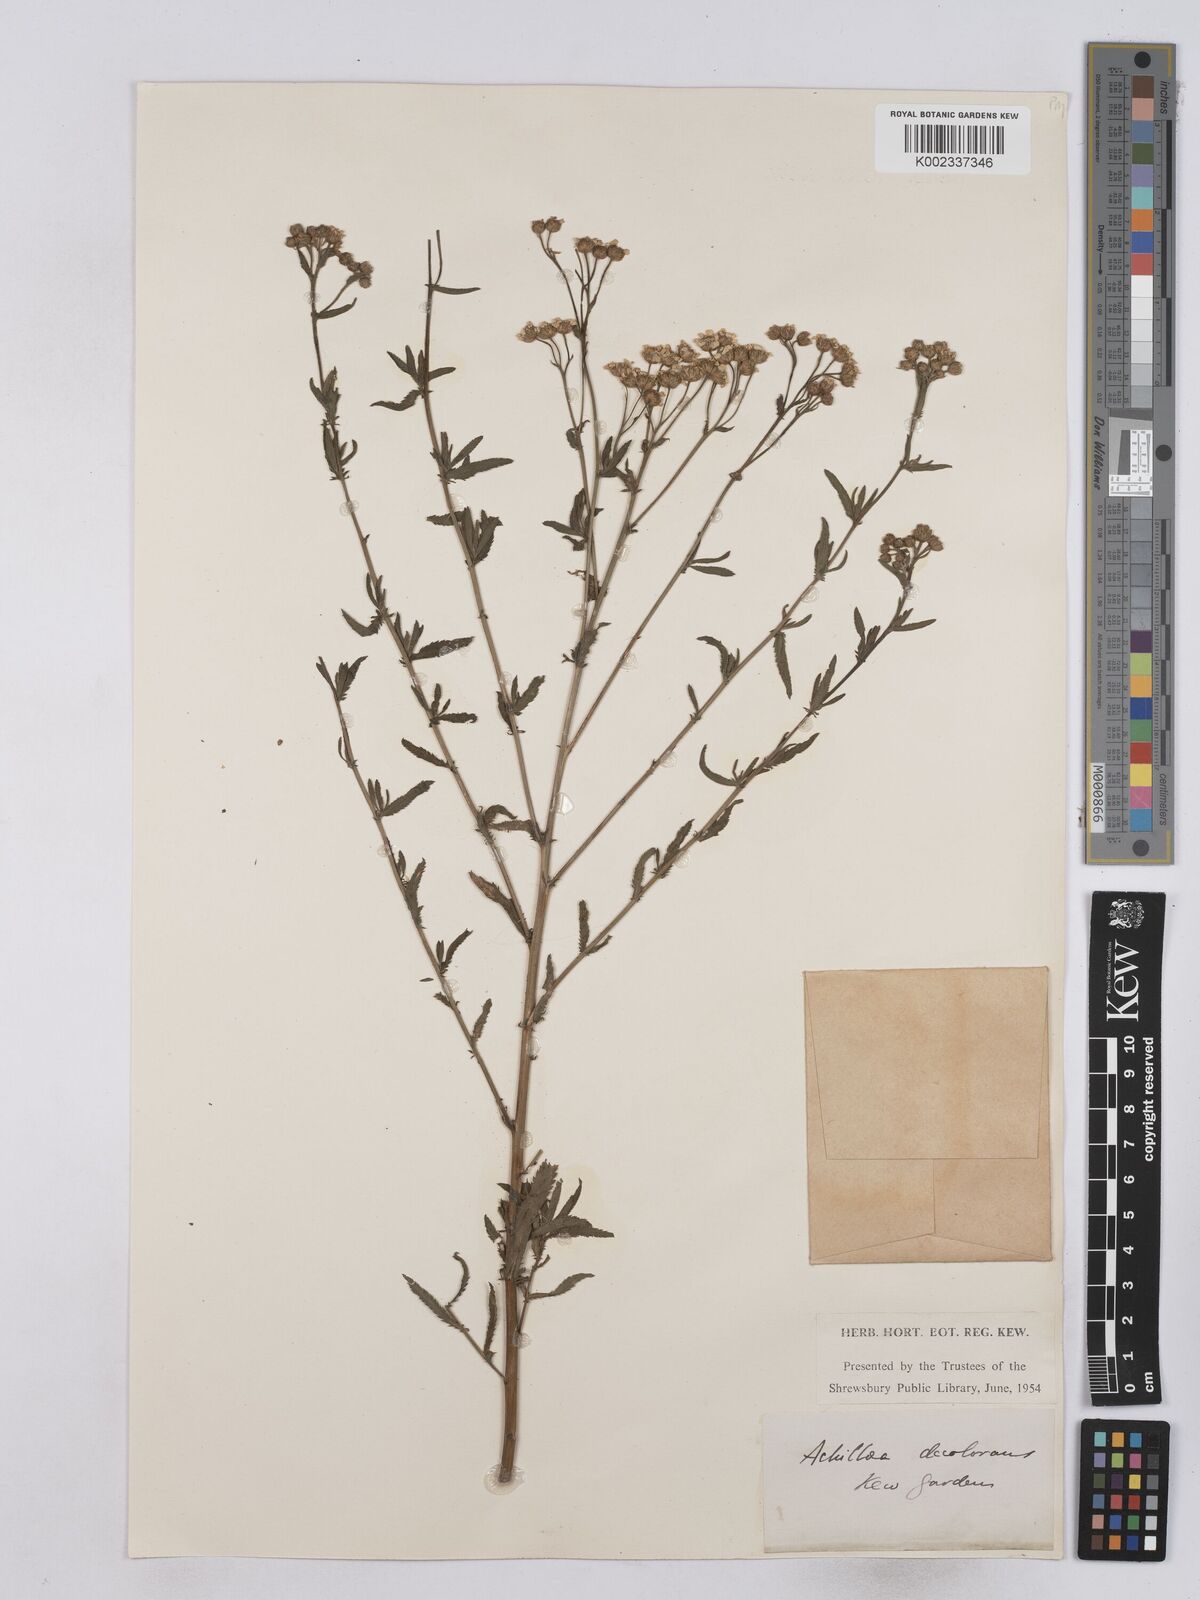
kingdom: Plantae
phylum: Tracheophyta
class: Magnoliopsida
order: Asterales
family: Asteraceae
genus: Achillea
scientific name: Achillea serrata
